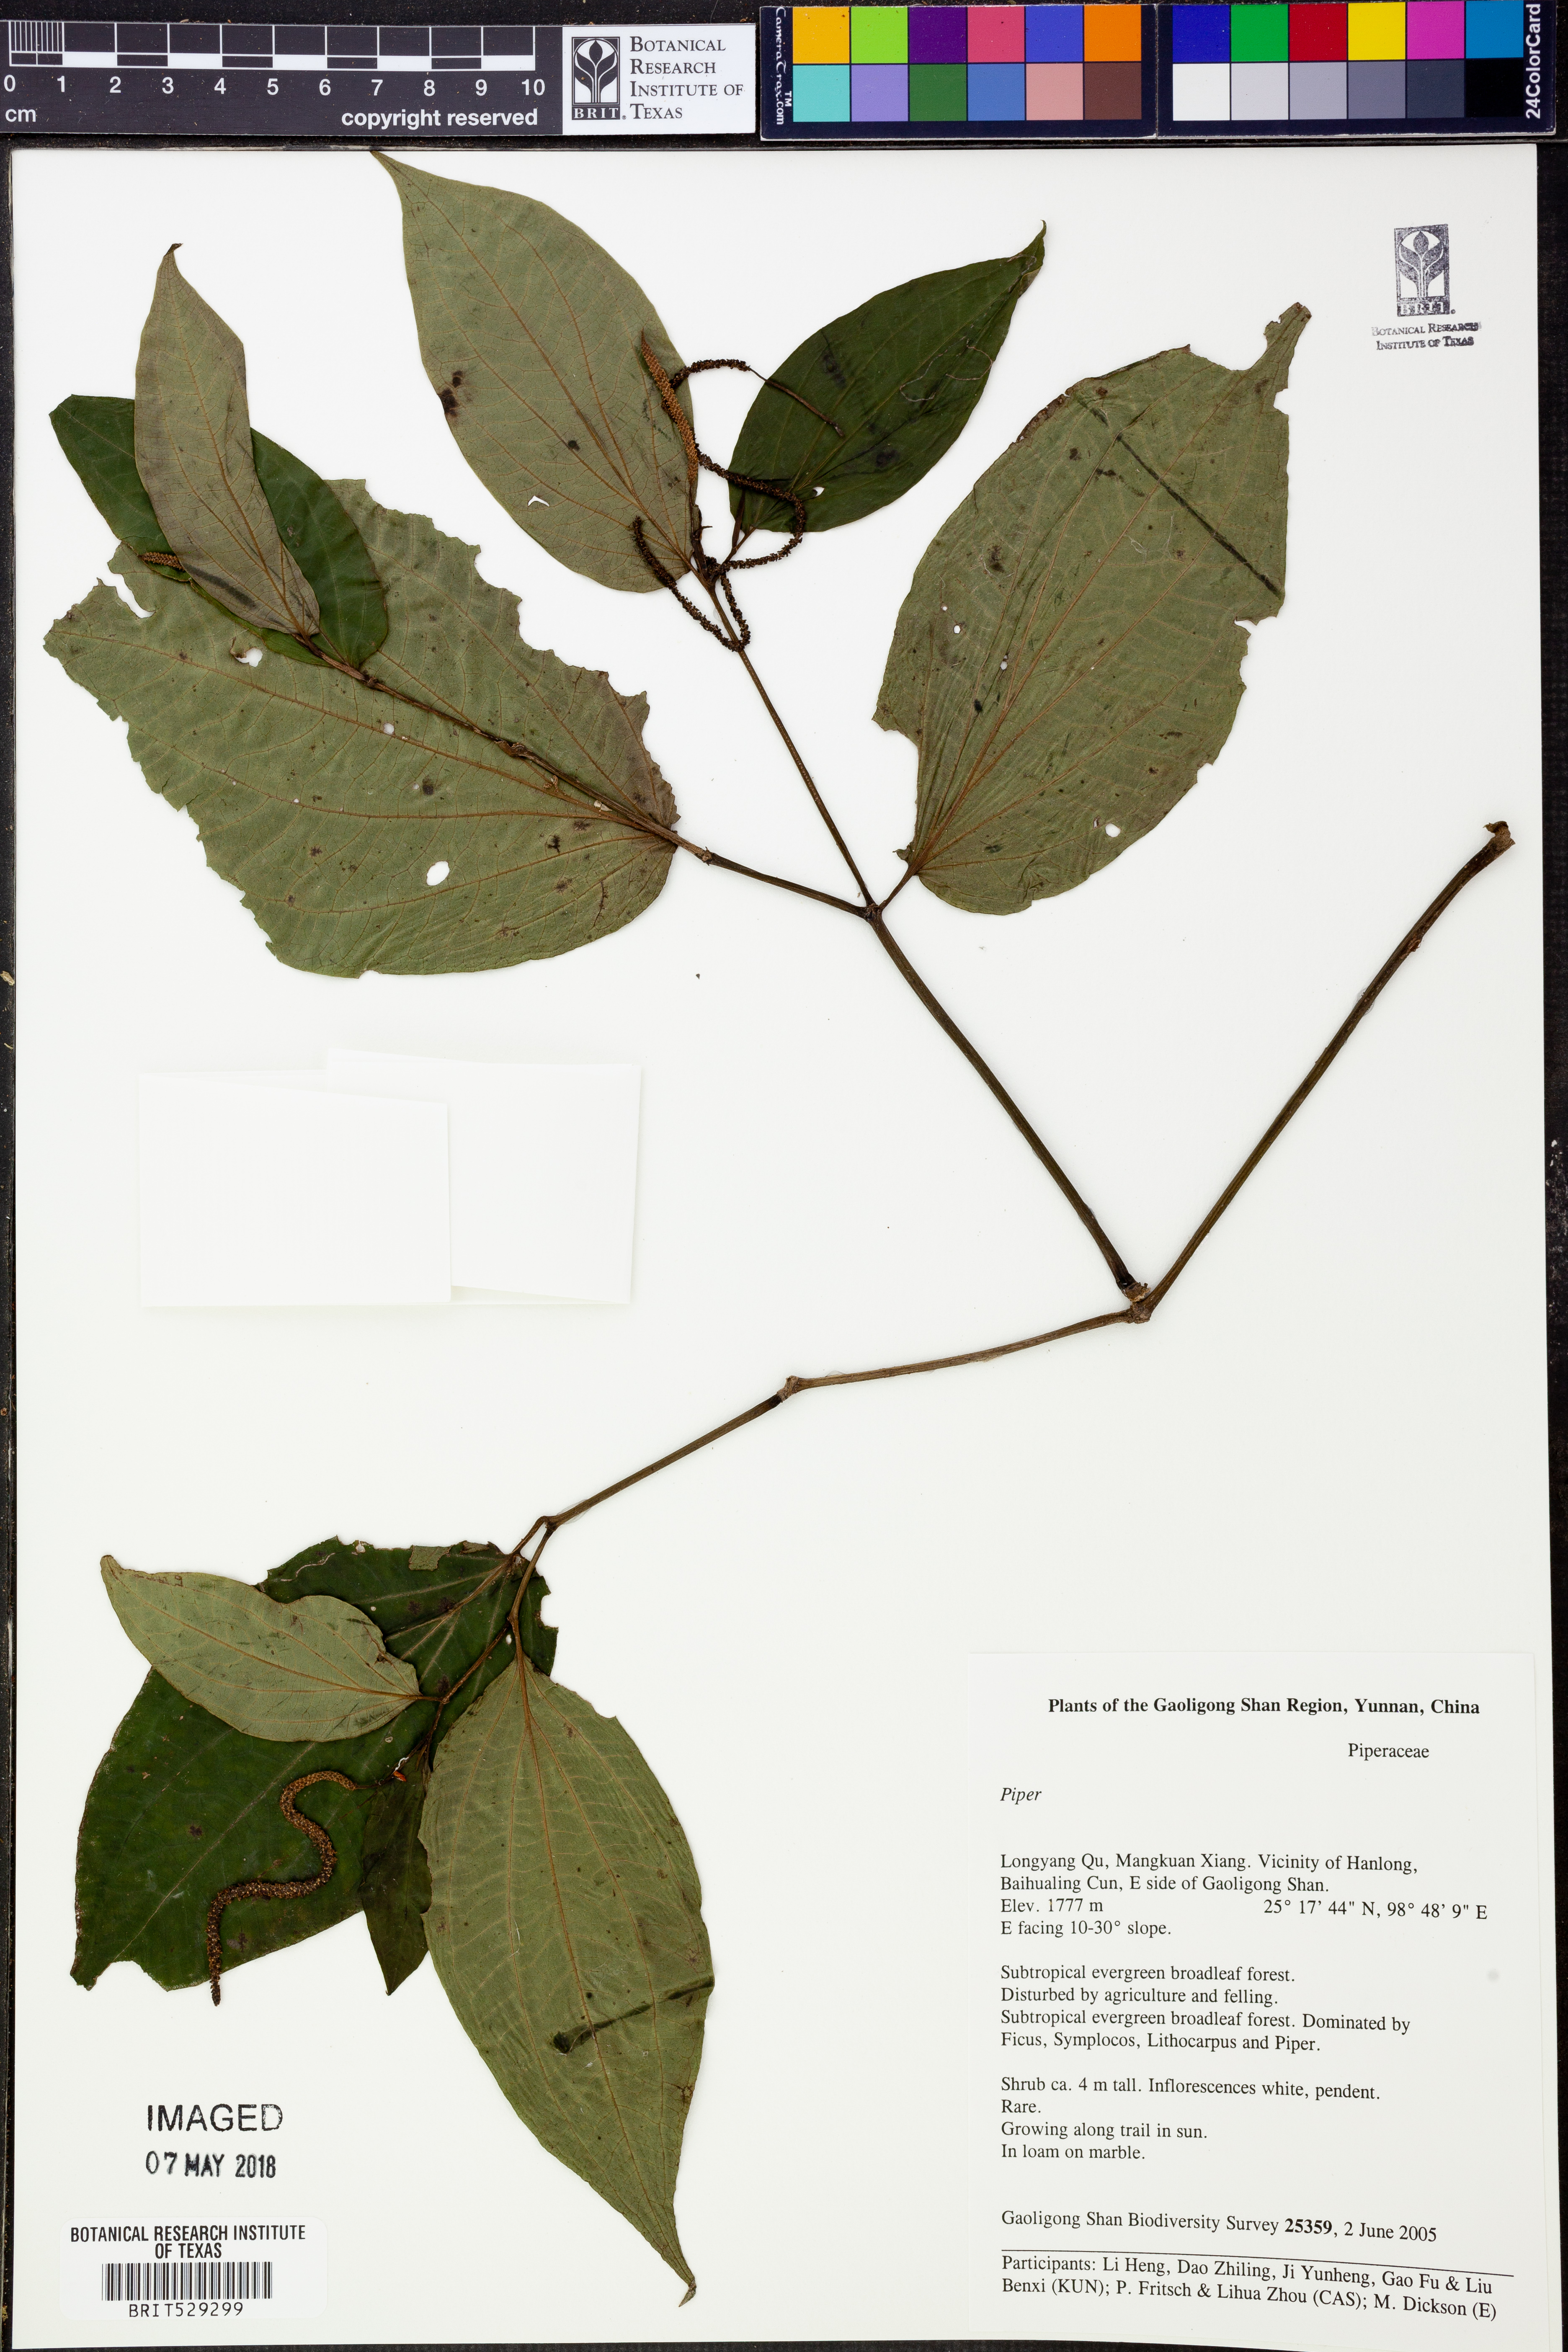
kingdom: Plantae
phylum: Tracheophyta
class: Magnoliopsida
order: Piperales
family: Piperaceae
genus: Piper
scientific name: Piper
